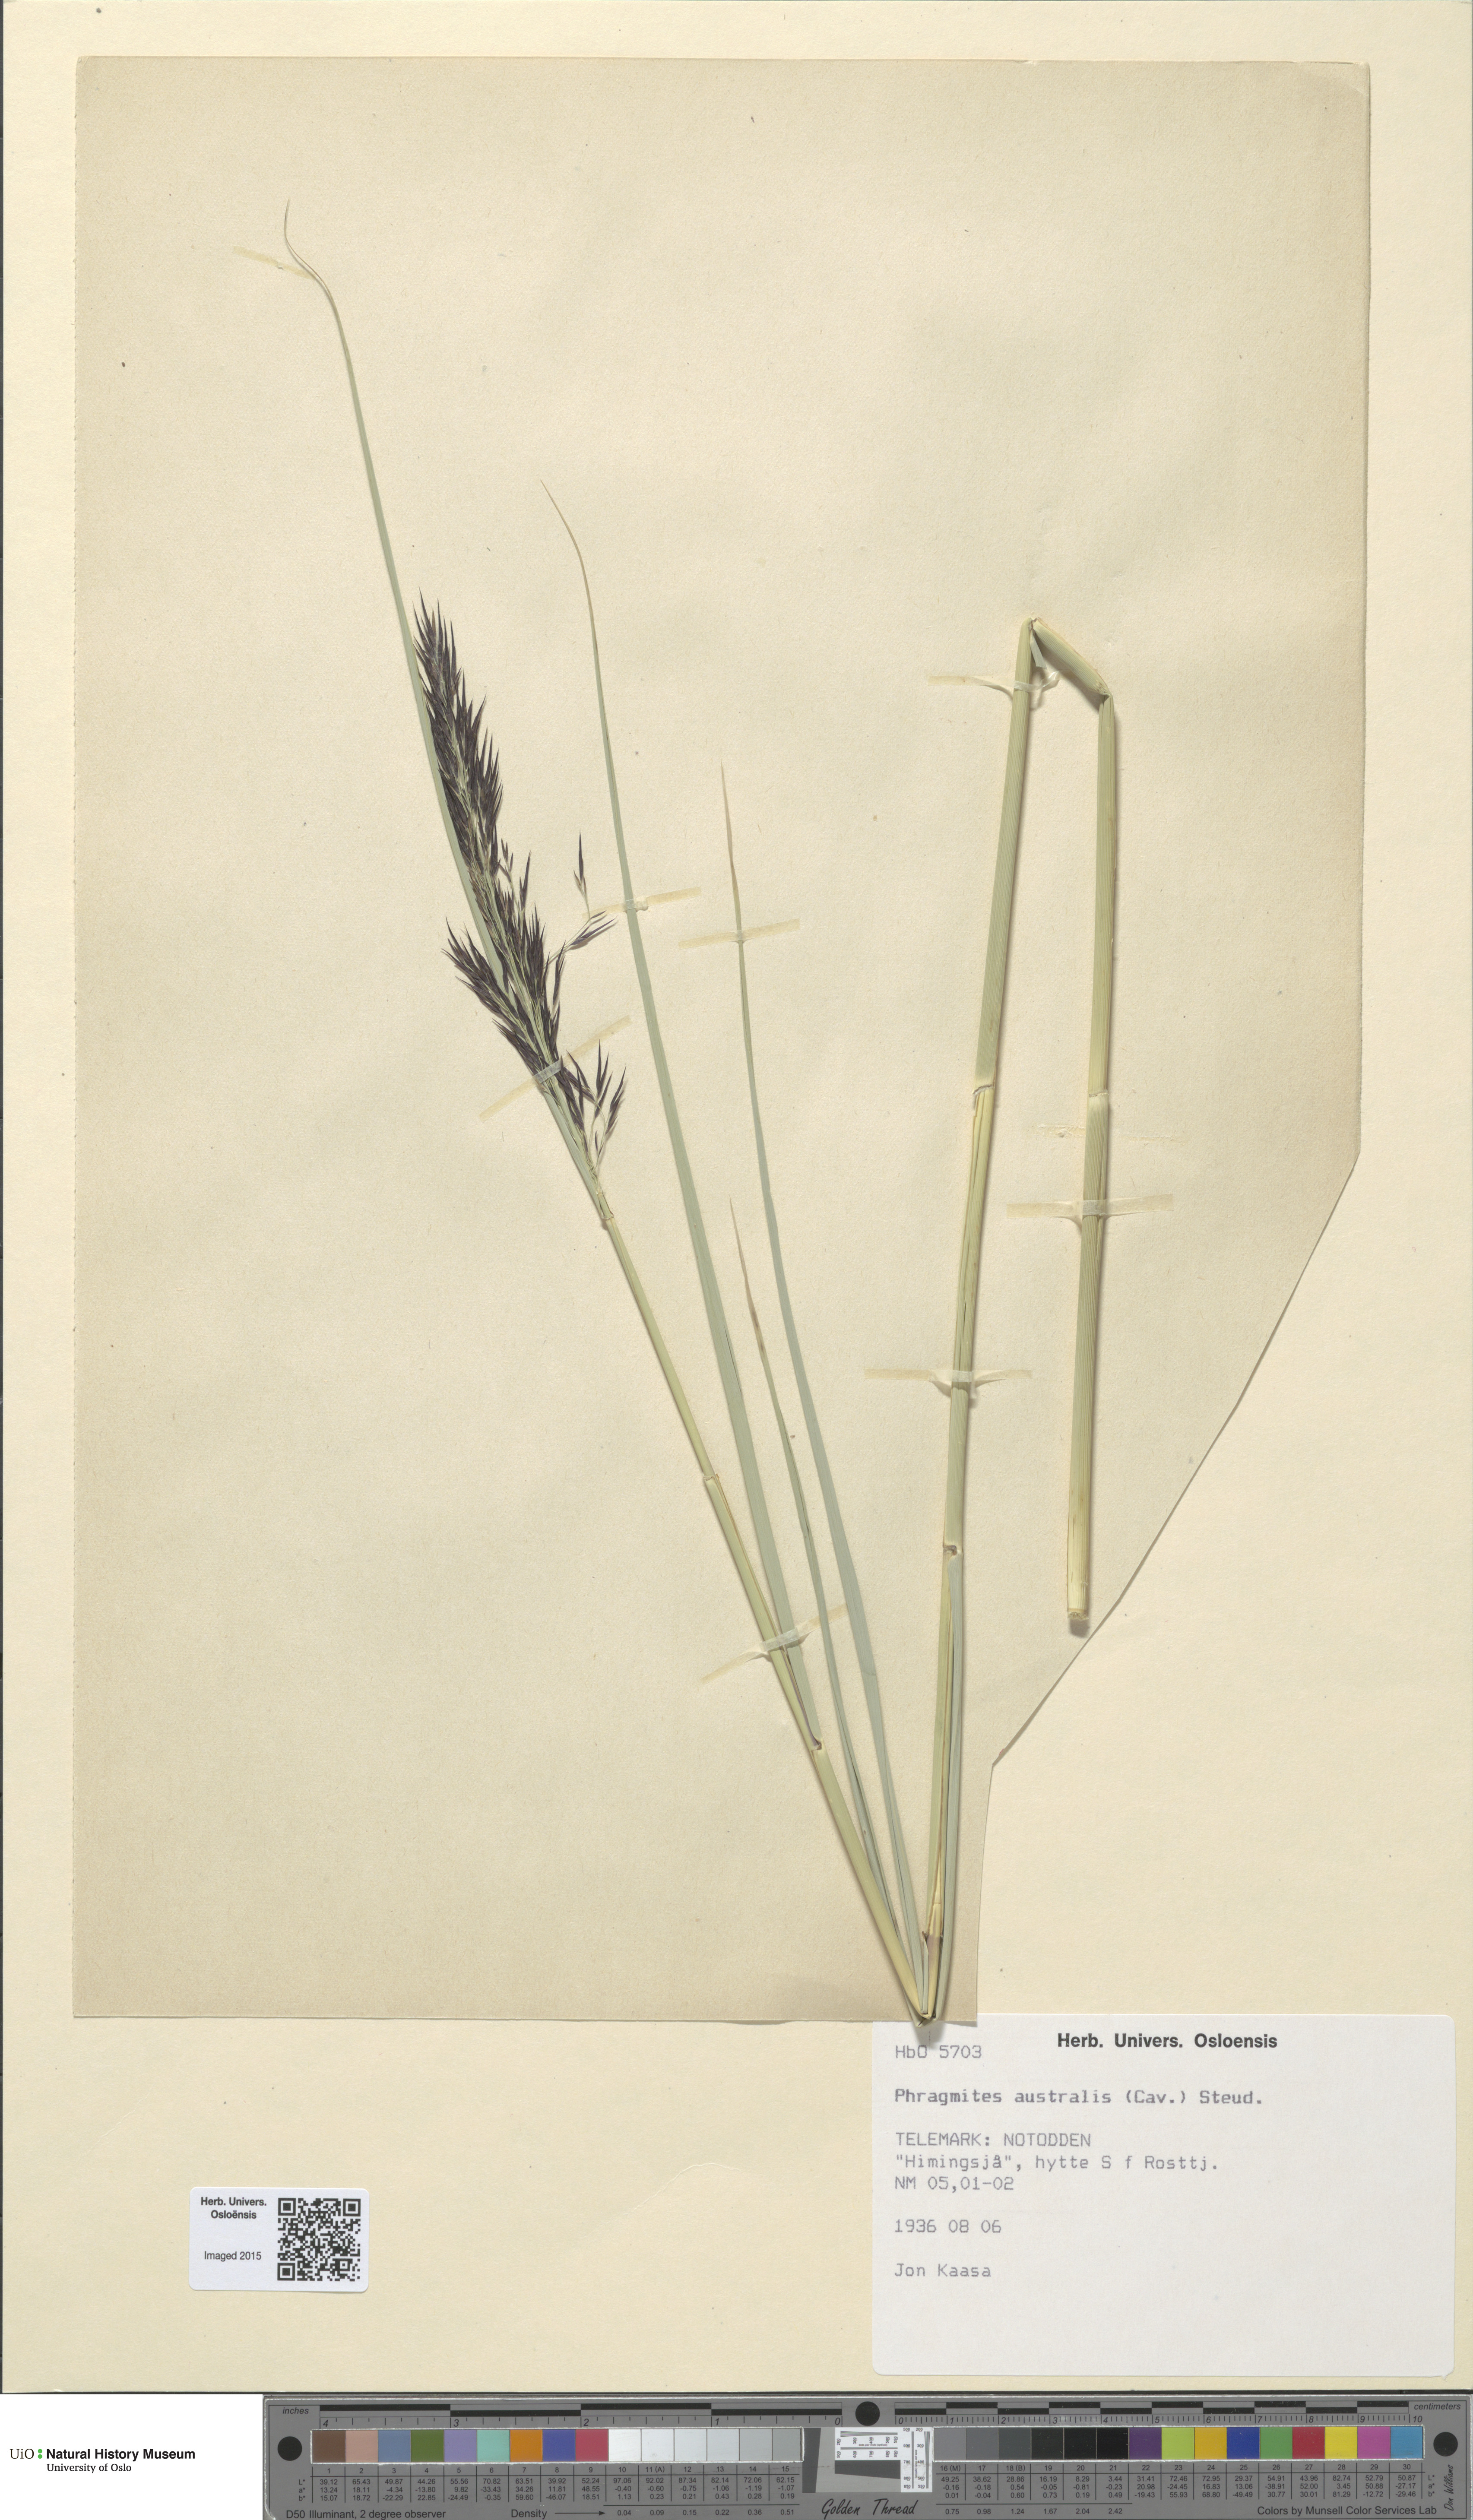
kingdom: Plantae
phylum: Tracheophyta
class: Liliopsida
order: Poales
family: Poaceae
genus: Phragmites
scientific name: Phragmites australis
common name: Common reed
